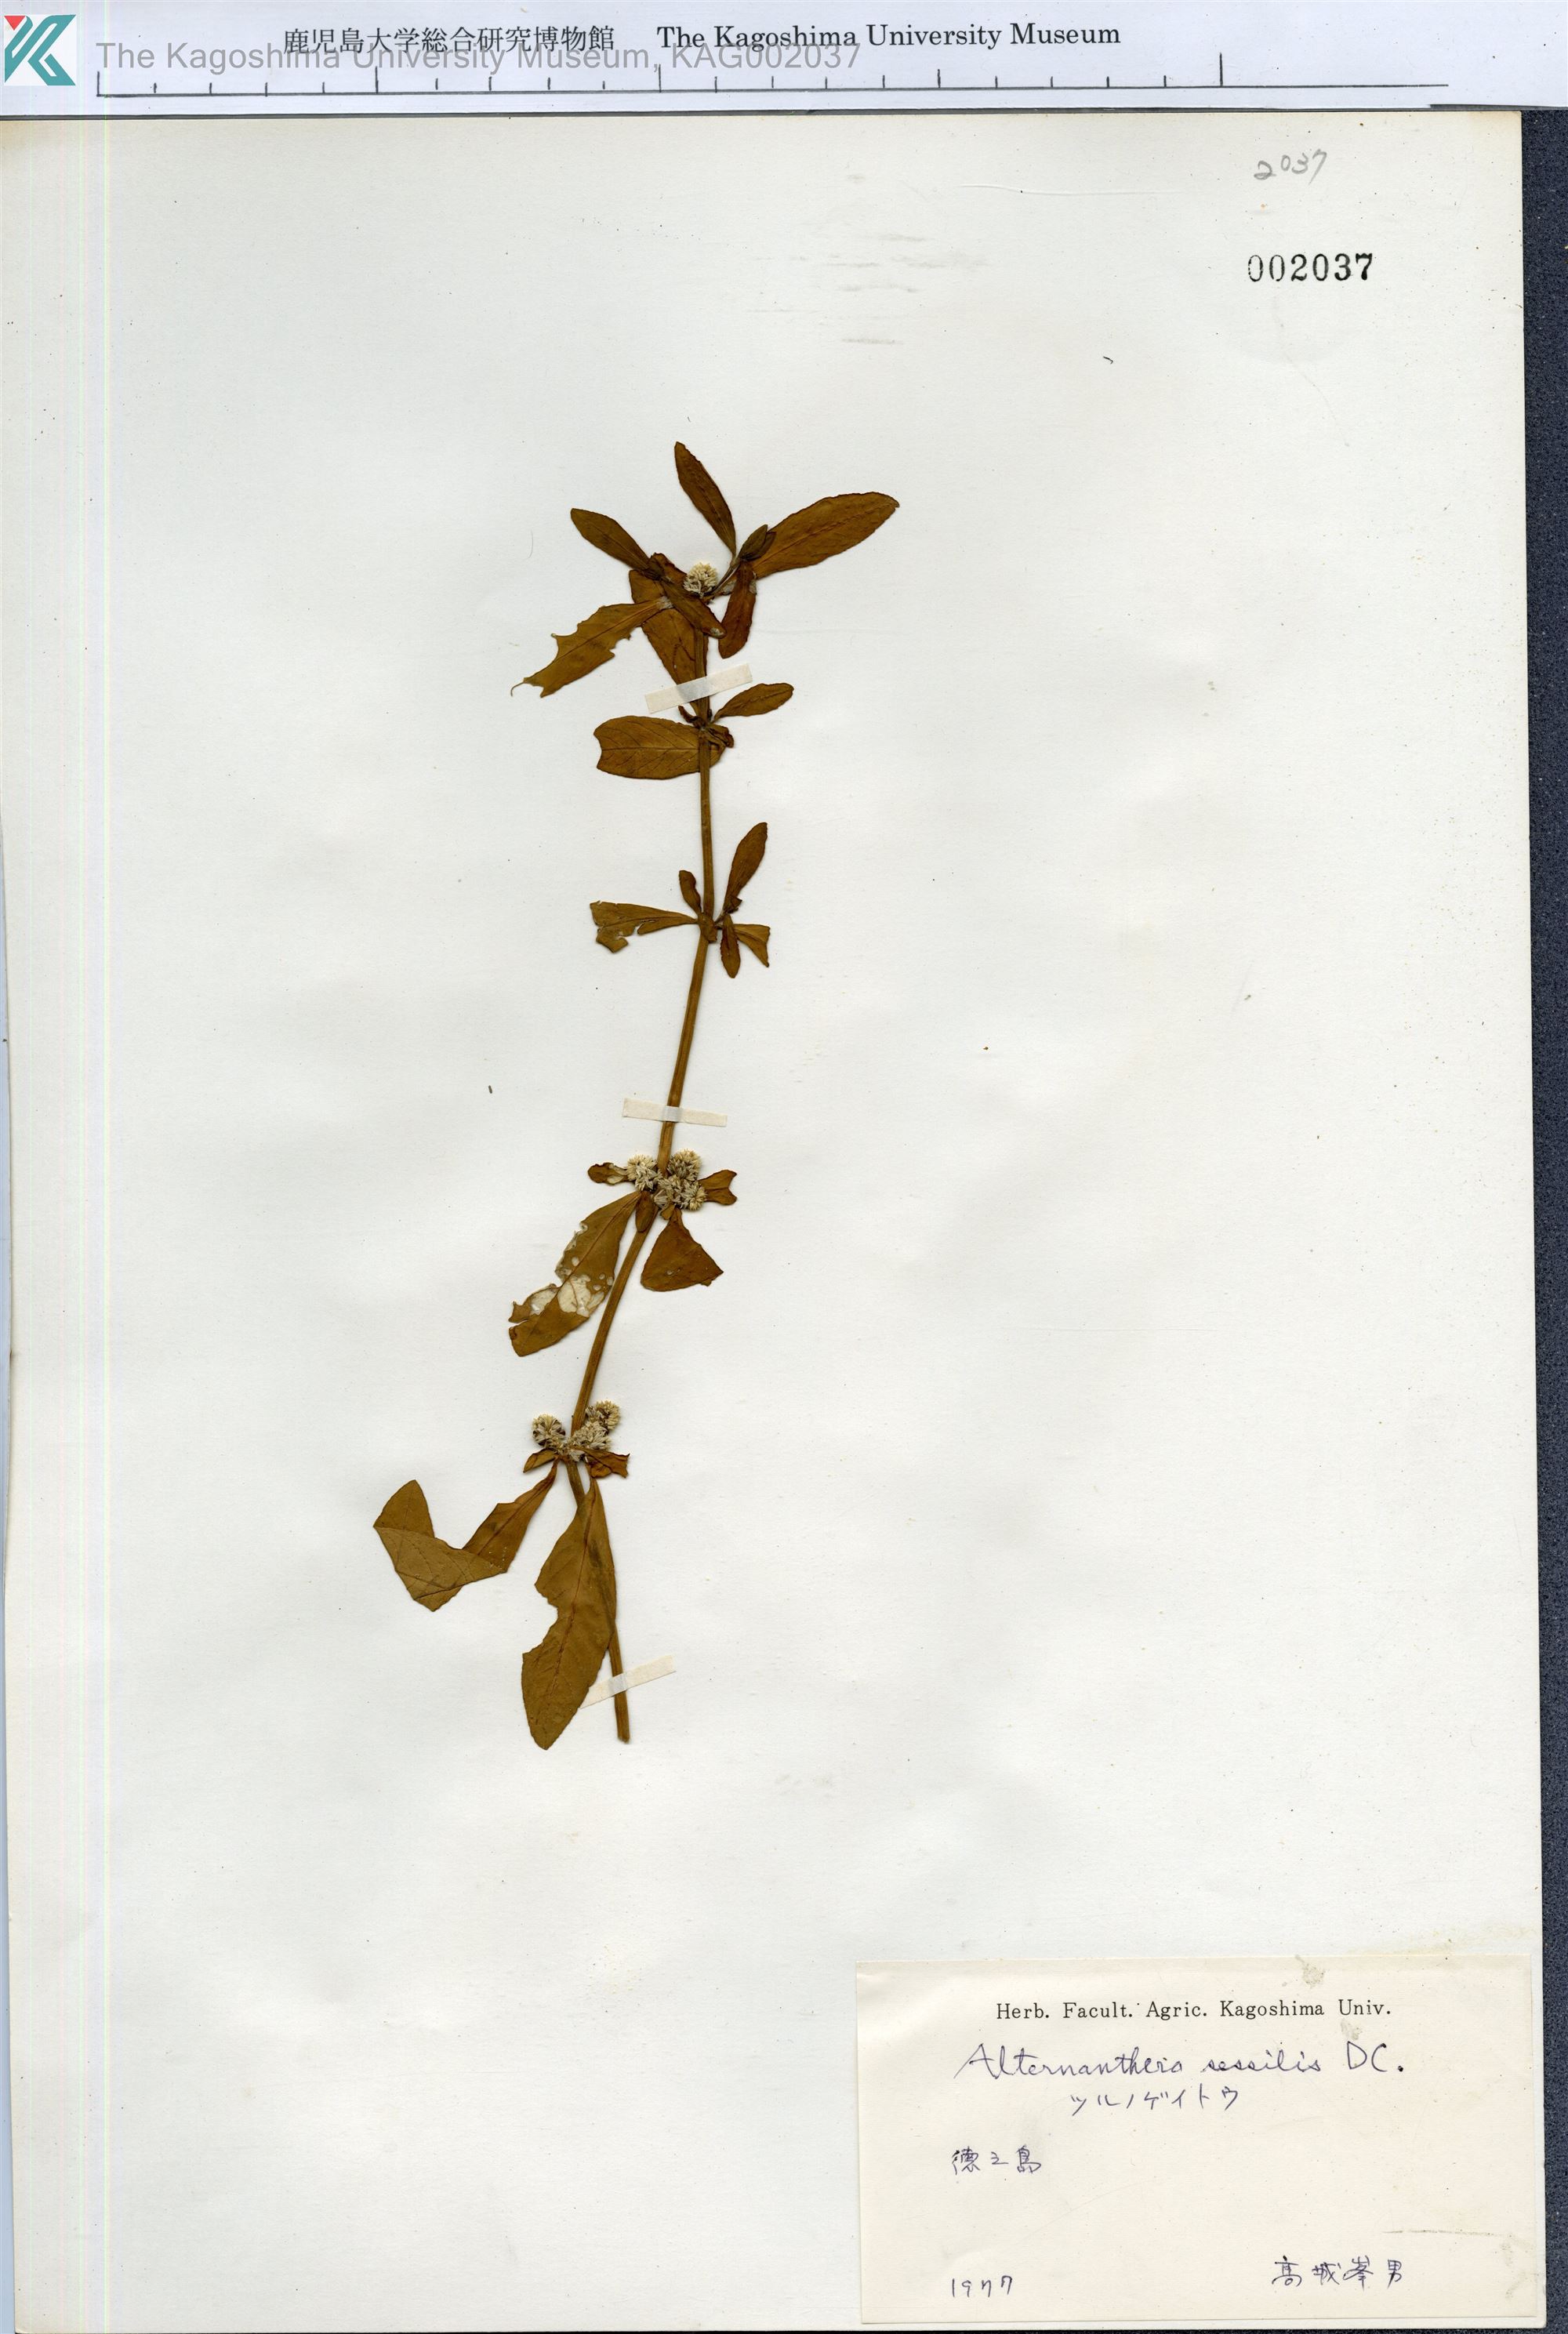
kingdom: Plantae
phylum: Tracheophyta
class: Magnoliopsida
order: Caryophyllales
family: Amaranthaceae
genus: Alternanthera
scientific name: Alternanthera sessilis
